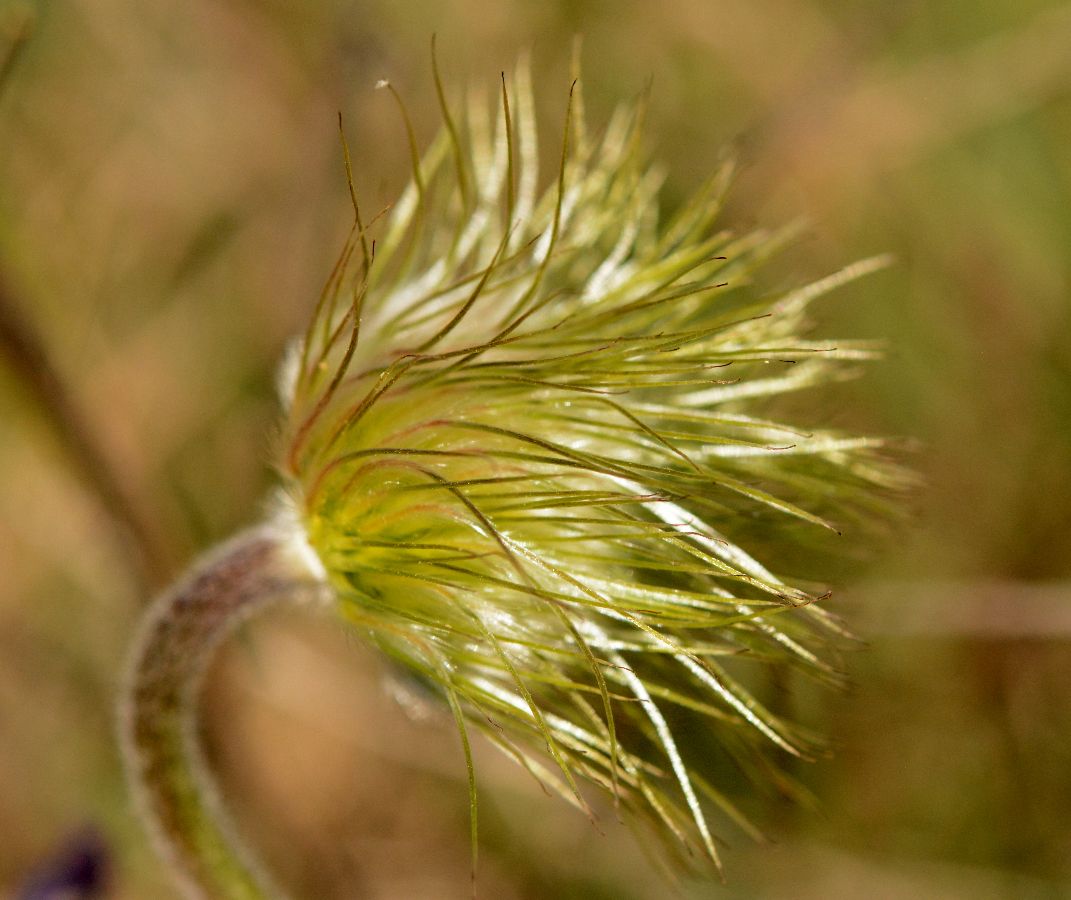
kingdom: Plantae
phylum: Tracheophyta
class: Magnoliopsida
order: Ranunculales
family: Ranunculaceae
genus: Pulsatilla
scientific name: Pulsatilla pratensis
